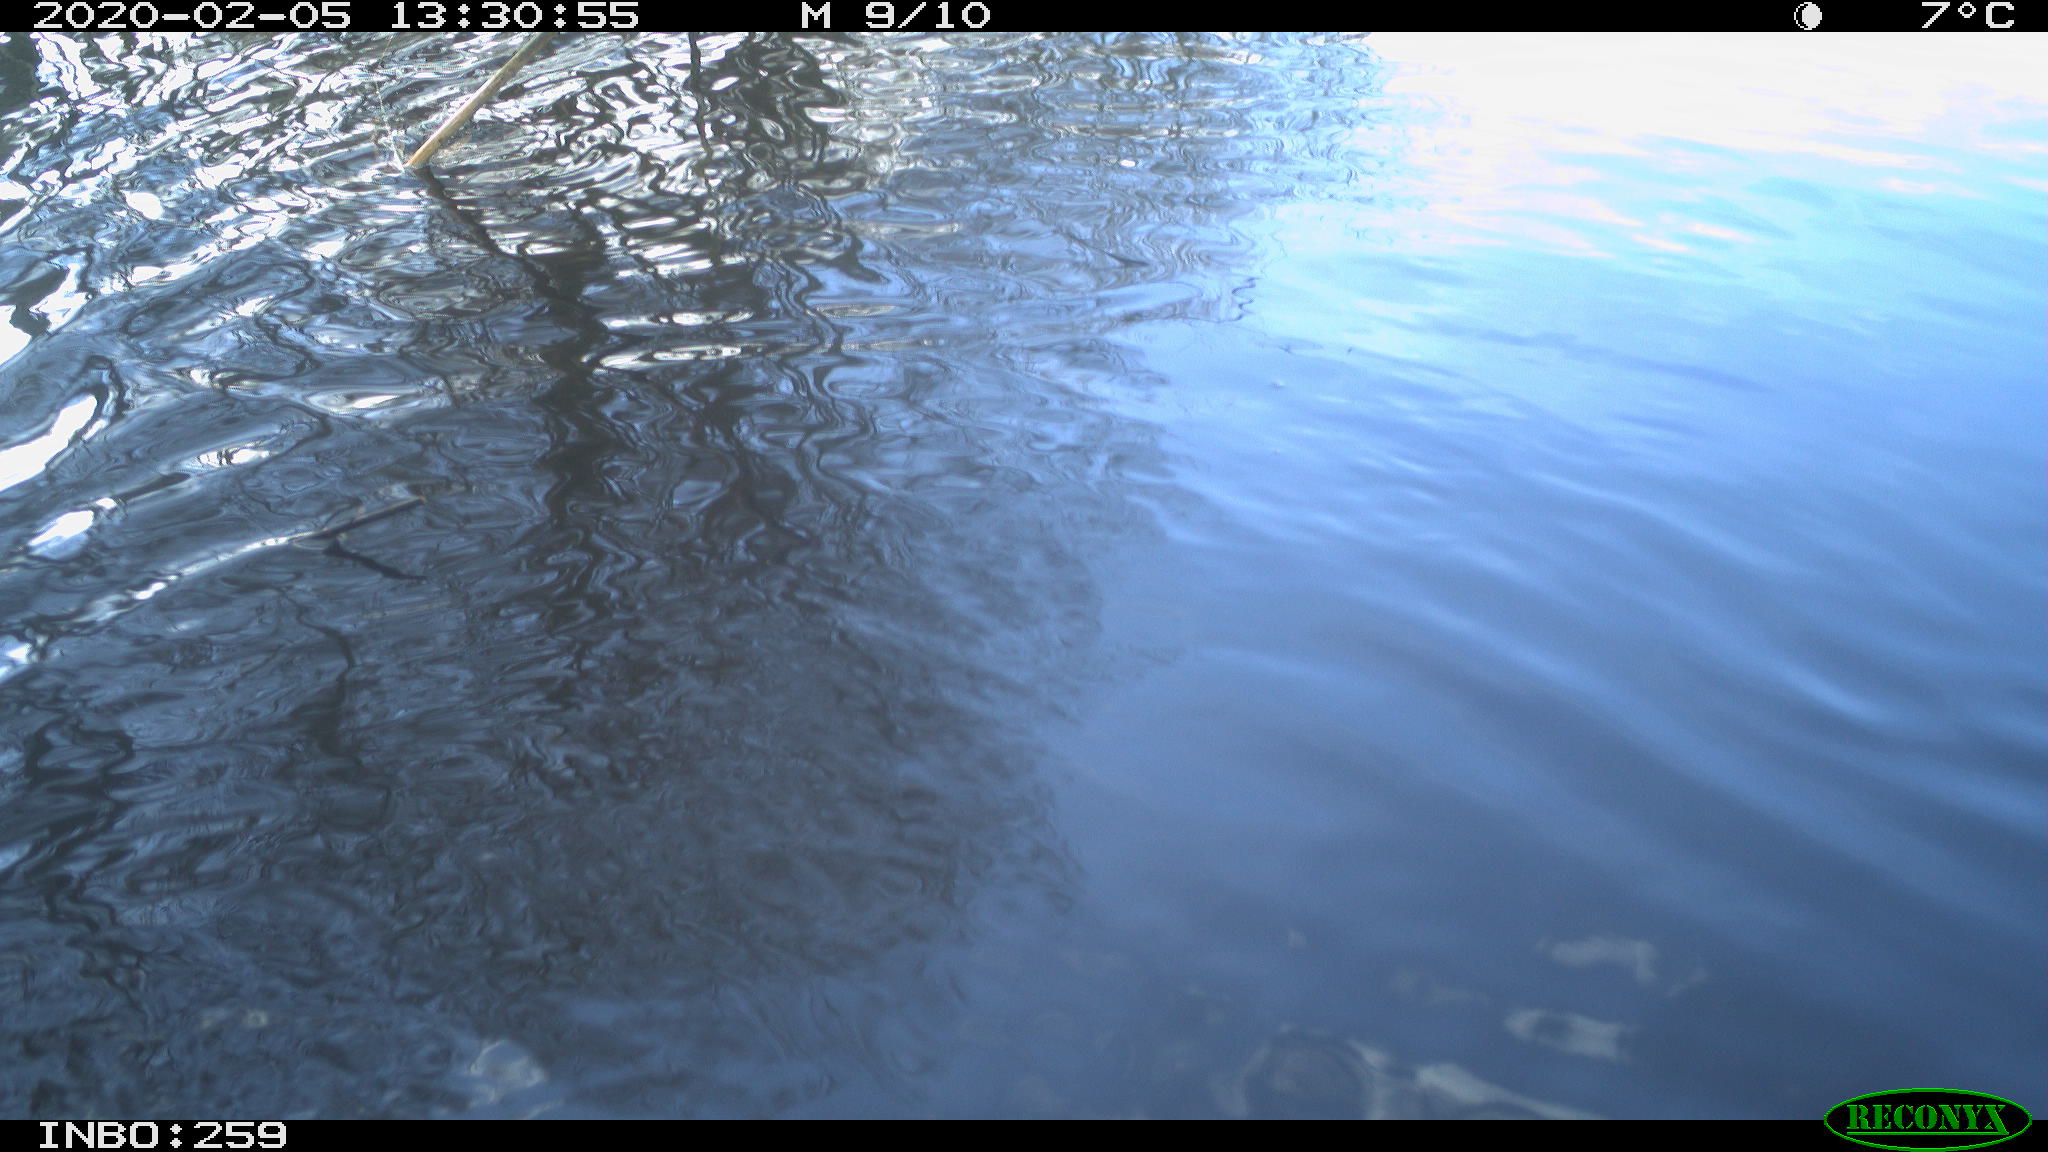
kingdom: Animalia
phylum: Chordata
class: Aves
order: Gruiformes
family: Rallidae
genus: Gallinula
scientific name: Gallinula chloropus
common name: Common moorhen
